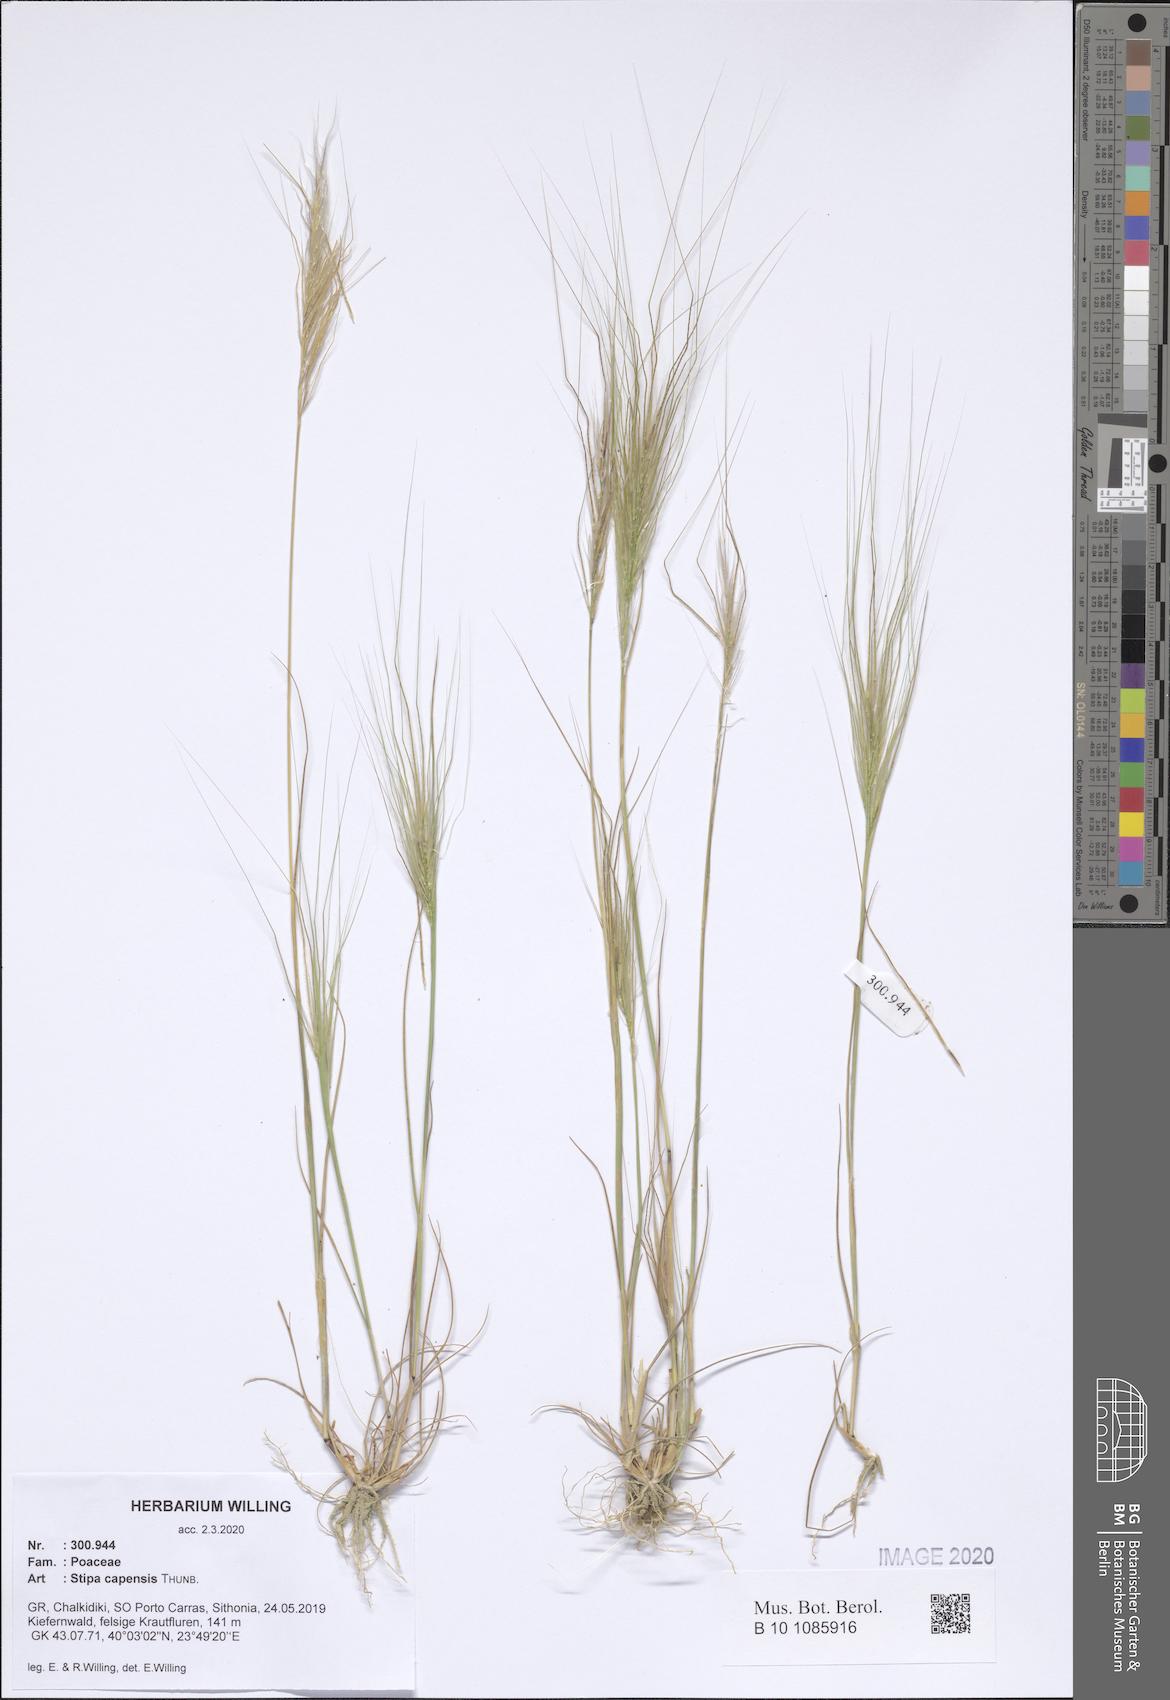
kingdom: Plantae
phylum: Tracheophyta
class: Liliopsida
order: Poales
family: Poaceae
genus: Stipellula
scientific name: Stipellula capensis
